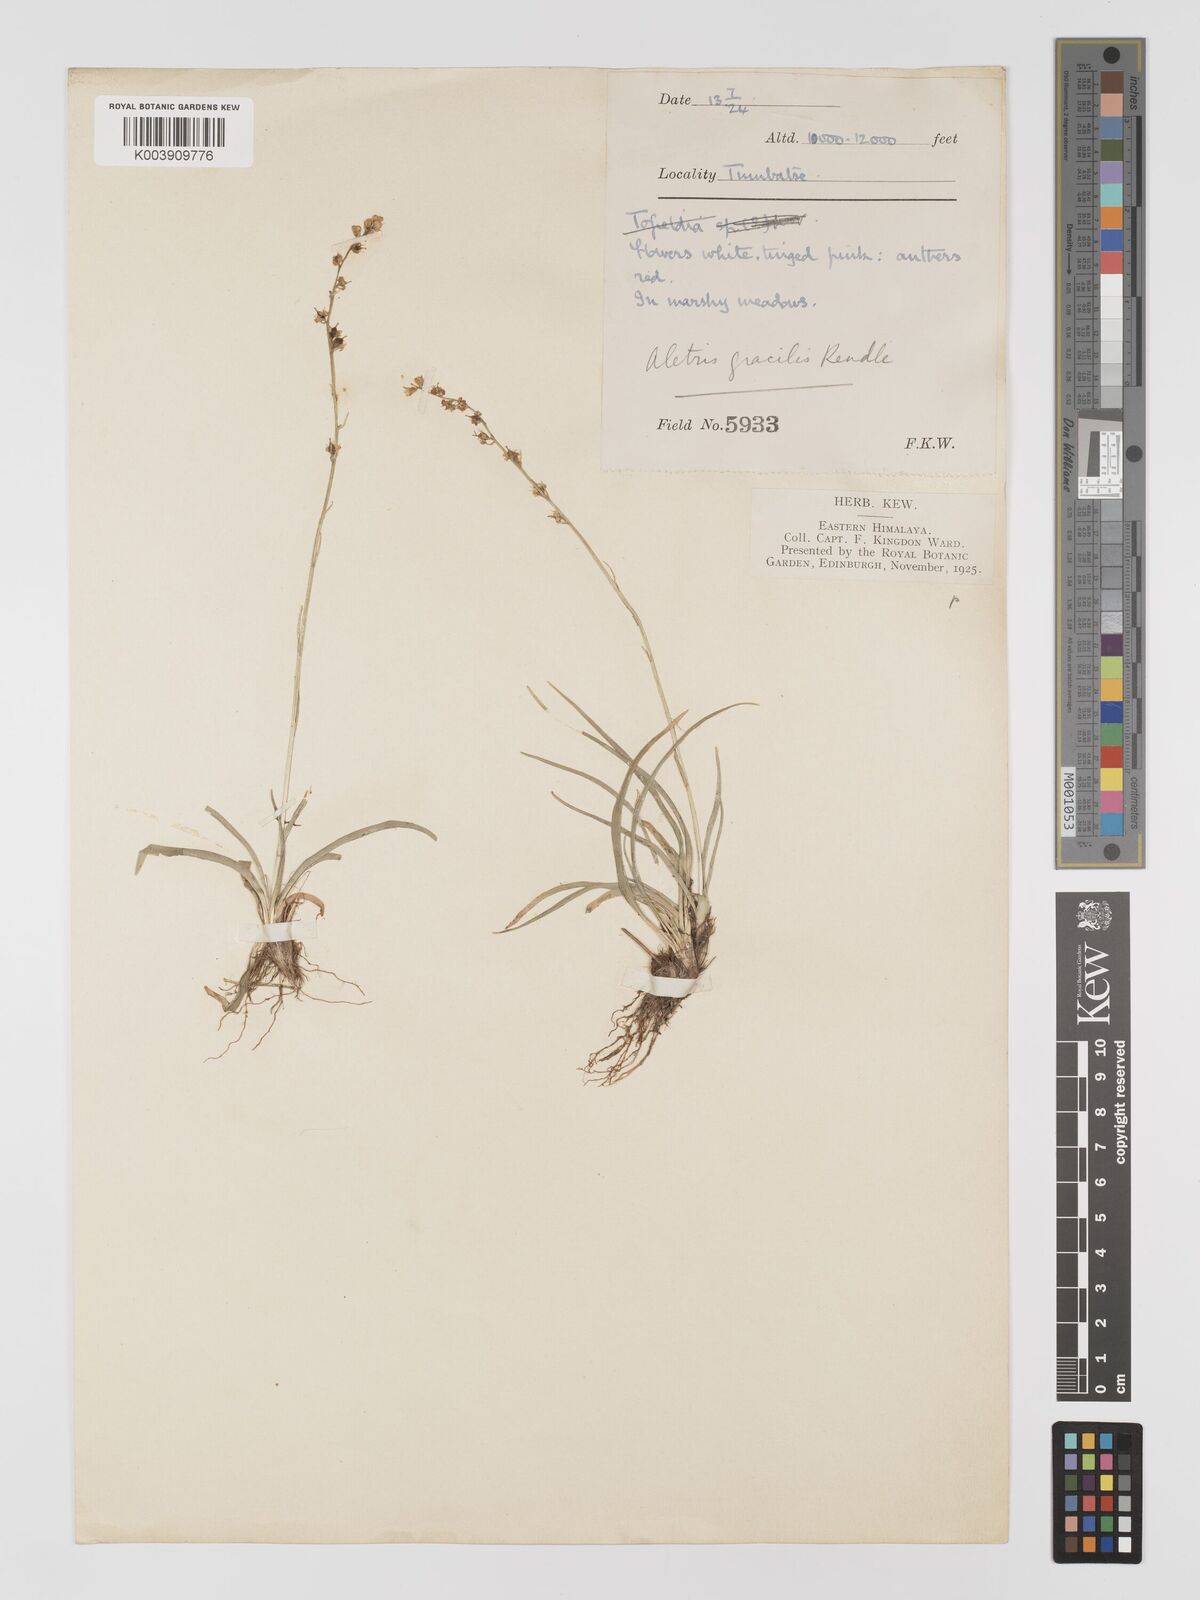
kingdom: Plantae
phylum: Tracheophyta
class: Liliopsida
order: Dioscoreales
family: Nartheciaceae
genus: Aletris
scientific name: Aletris gracilis
